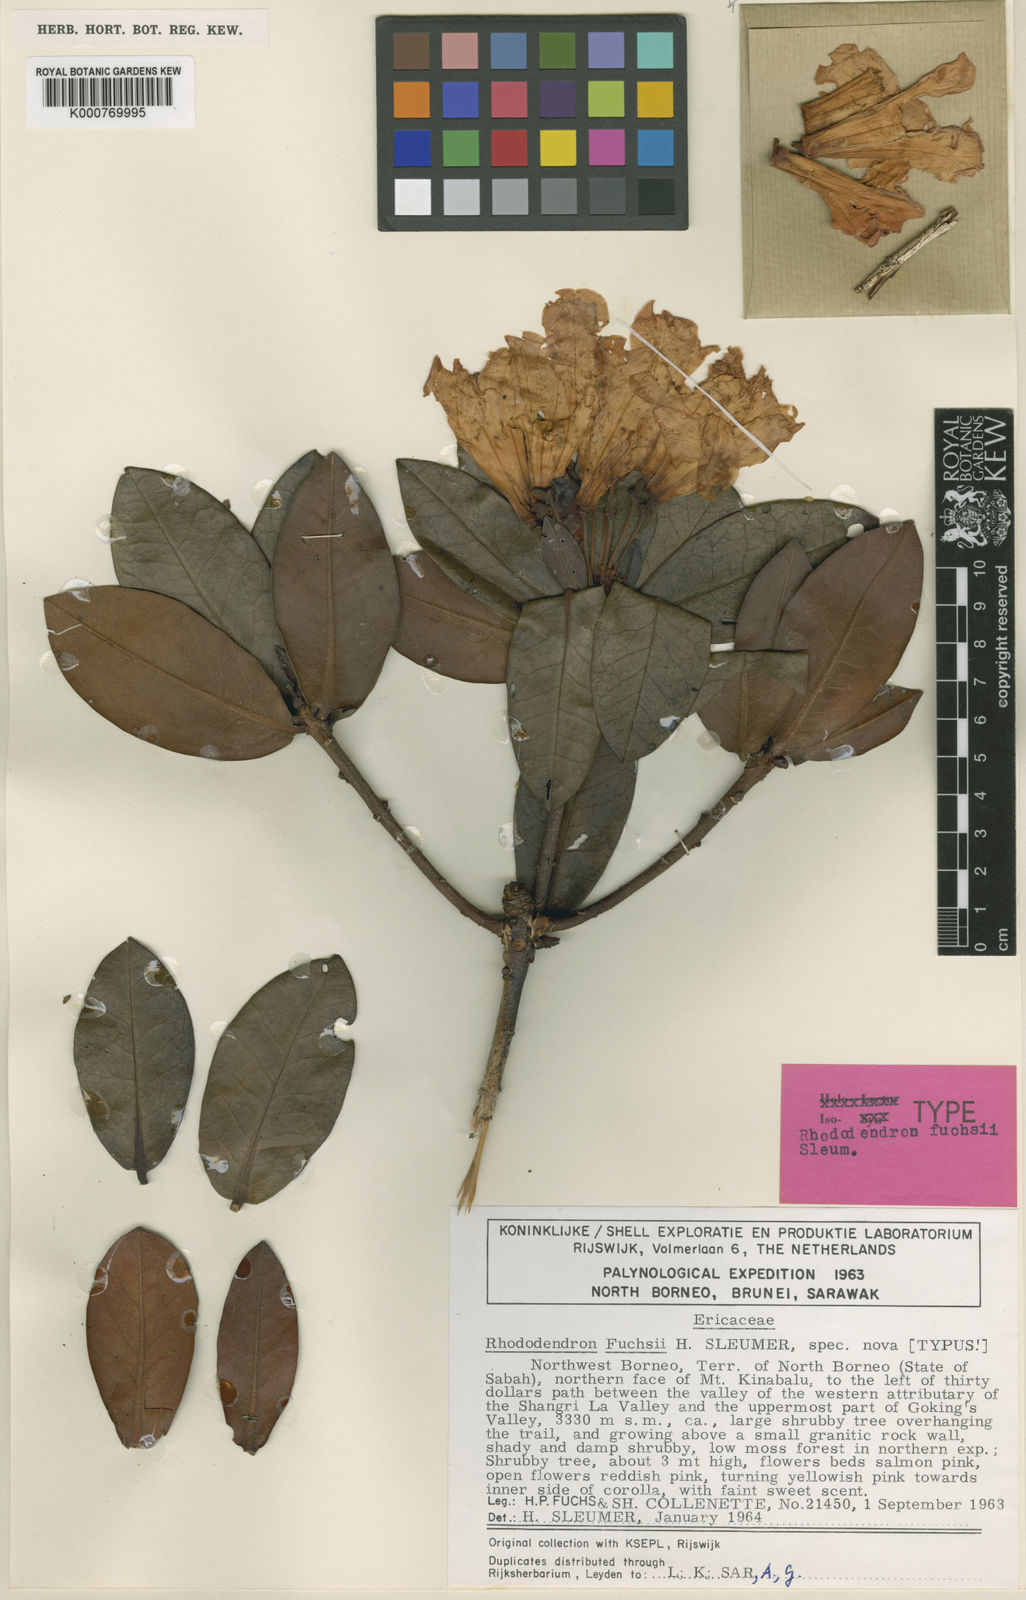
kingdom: Plantae
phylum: Tracheophyta
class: Magnoliopsida
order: Ericales
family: Ericaceae
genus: Rhododendron
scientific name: Rhododendron fuchsii
